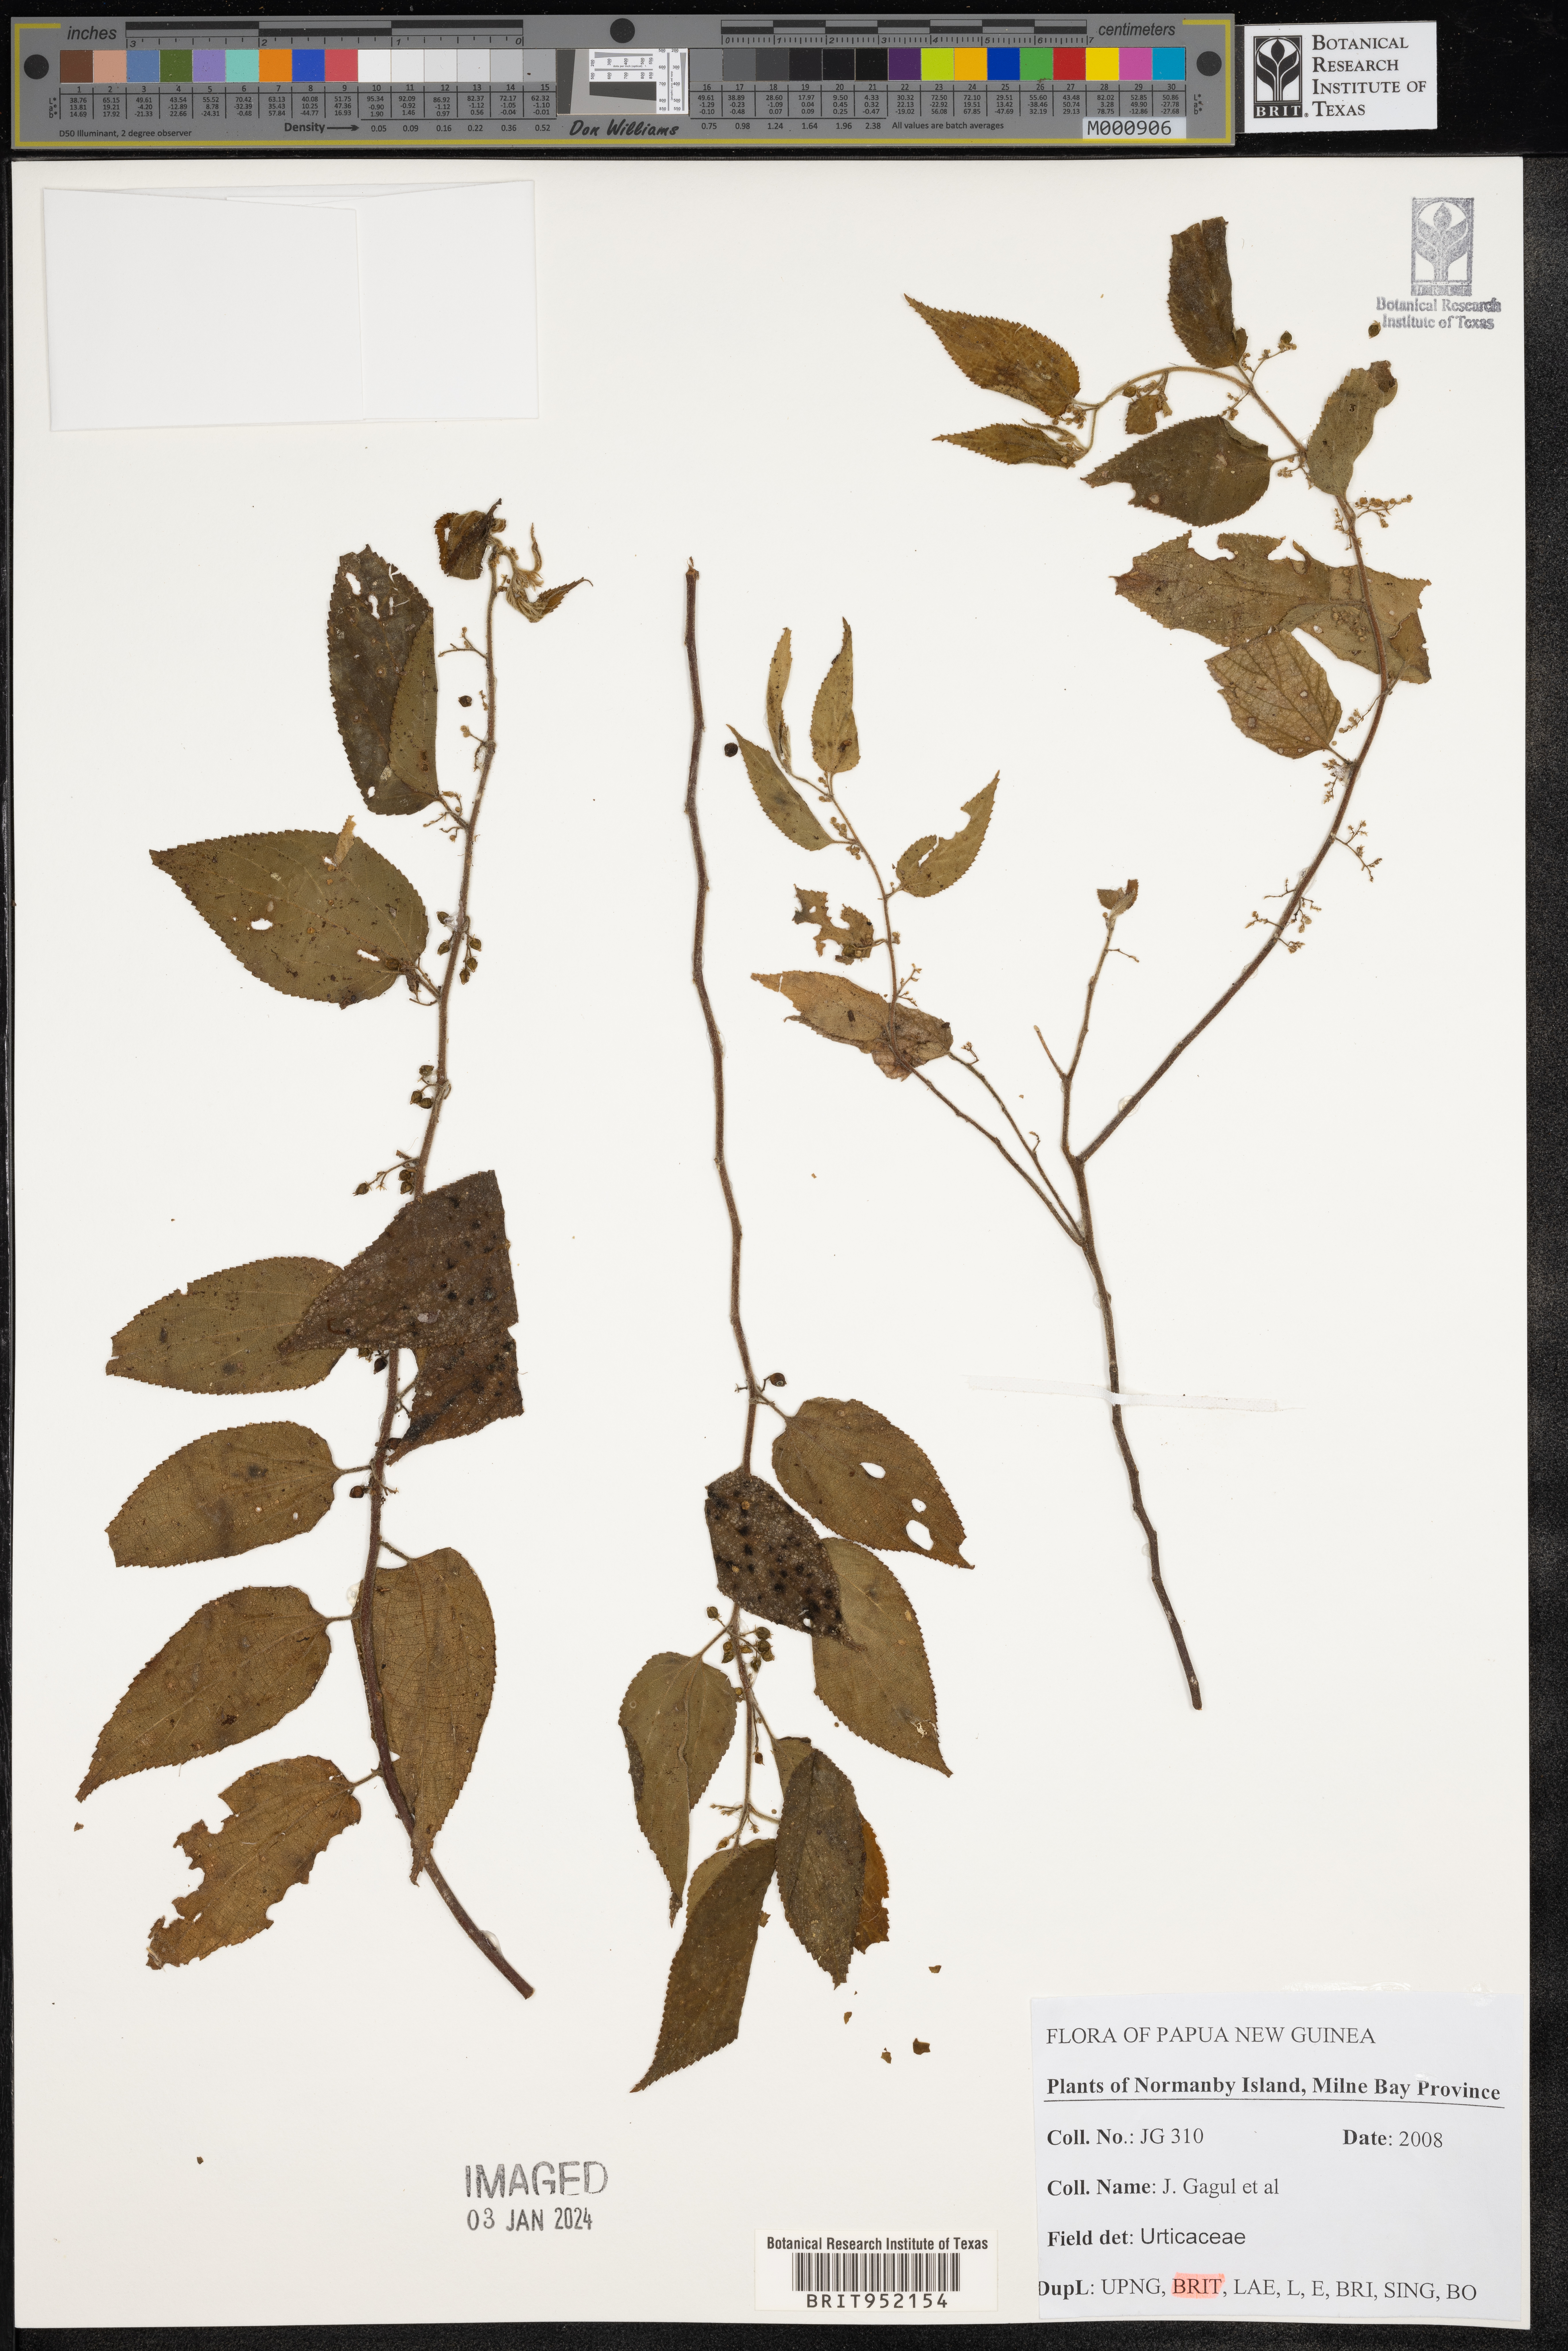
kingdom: Plantae
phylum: Tracheophyta
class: Magnoliopsida
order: Rosales
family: Urticaceae
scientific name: Urticaceae
